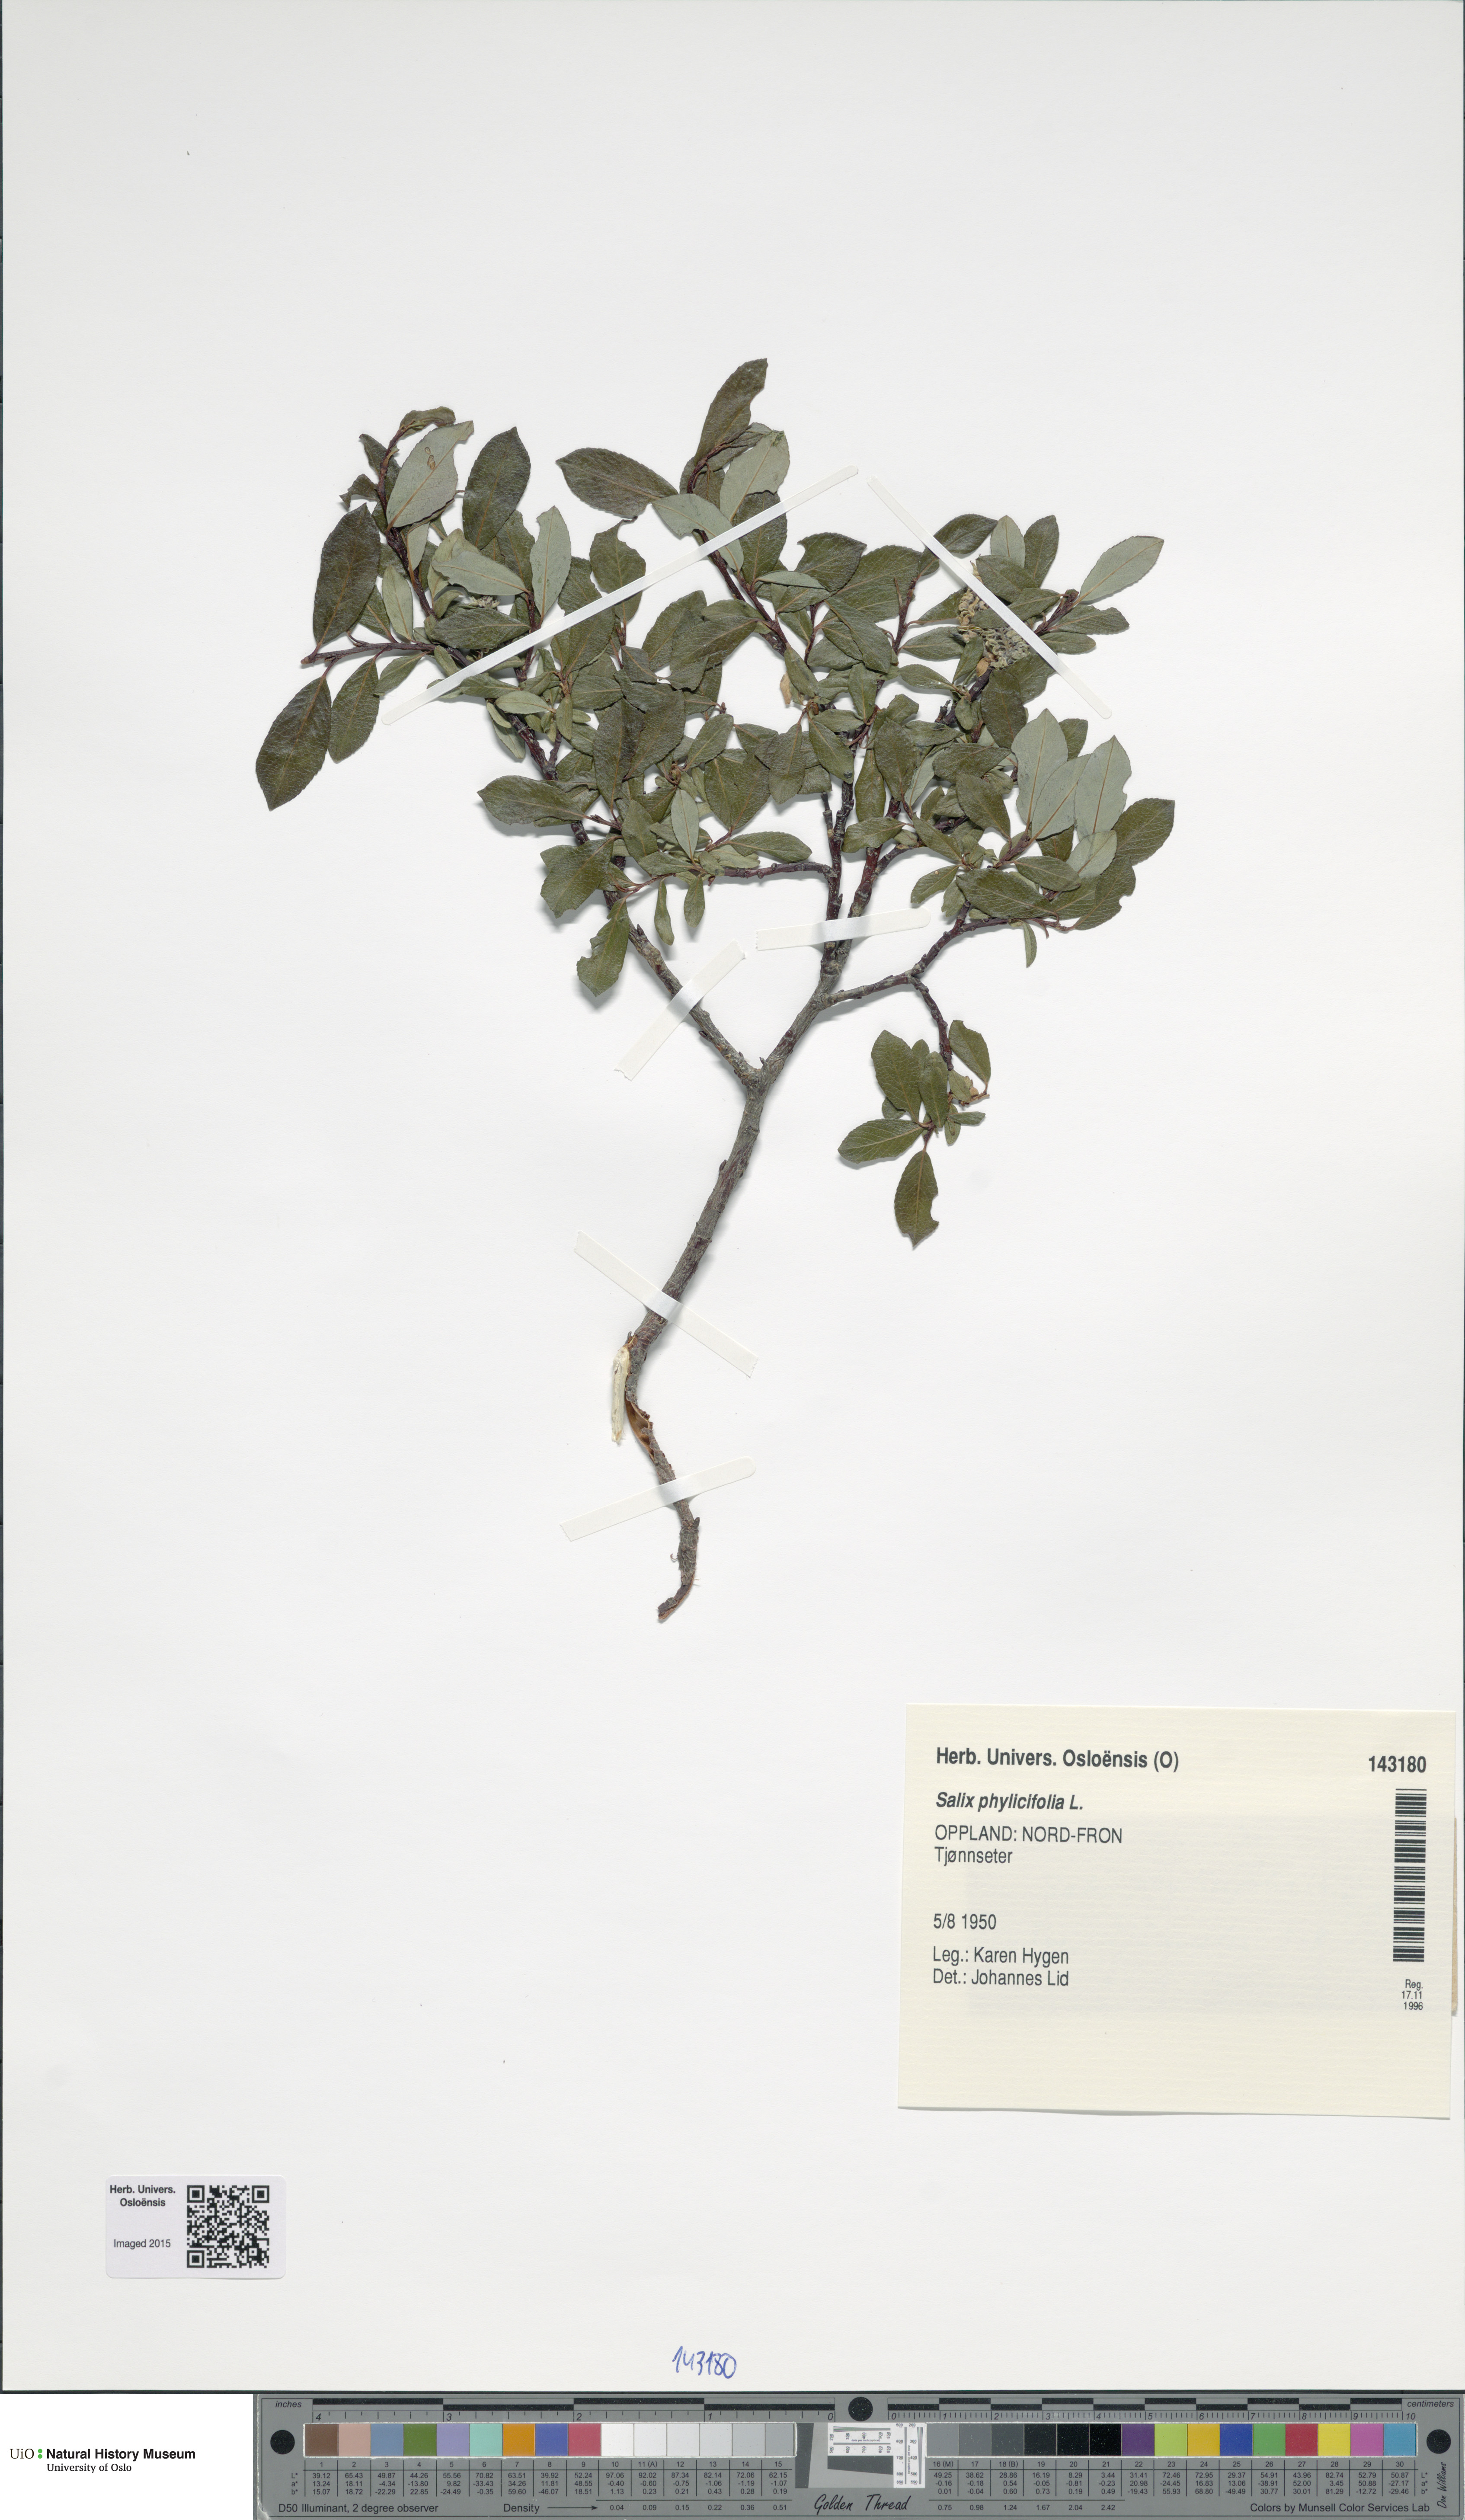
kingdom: Plantae
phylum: Tracheophyta
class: Magnoliopsida
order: Malpighiales
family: Salicaceae
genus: Salix
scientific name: Salix phylicifolia
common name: Tea-leaved willow
